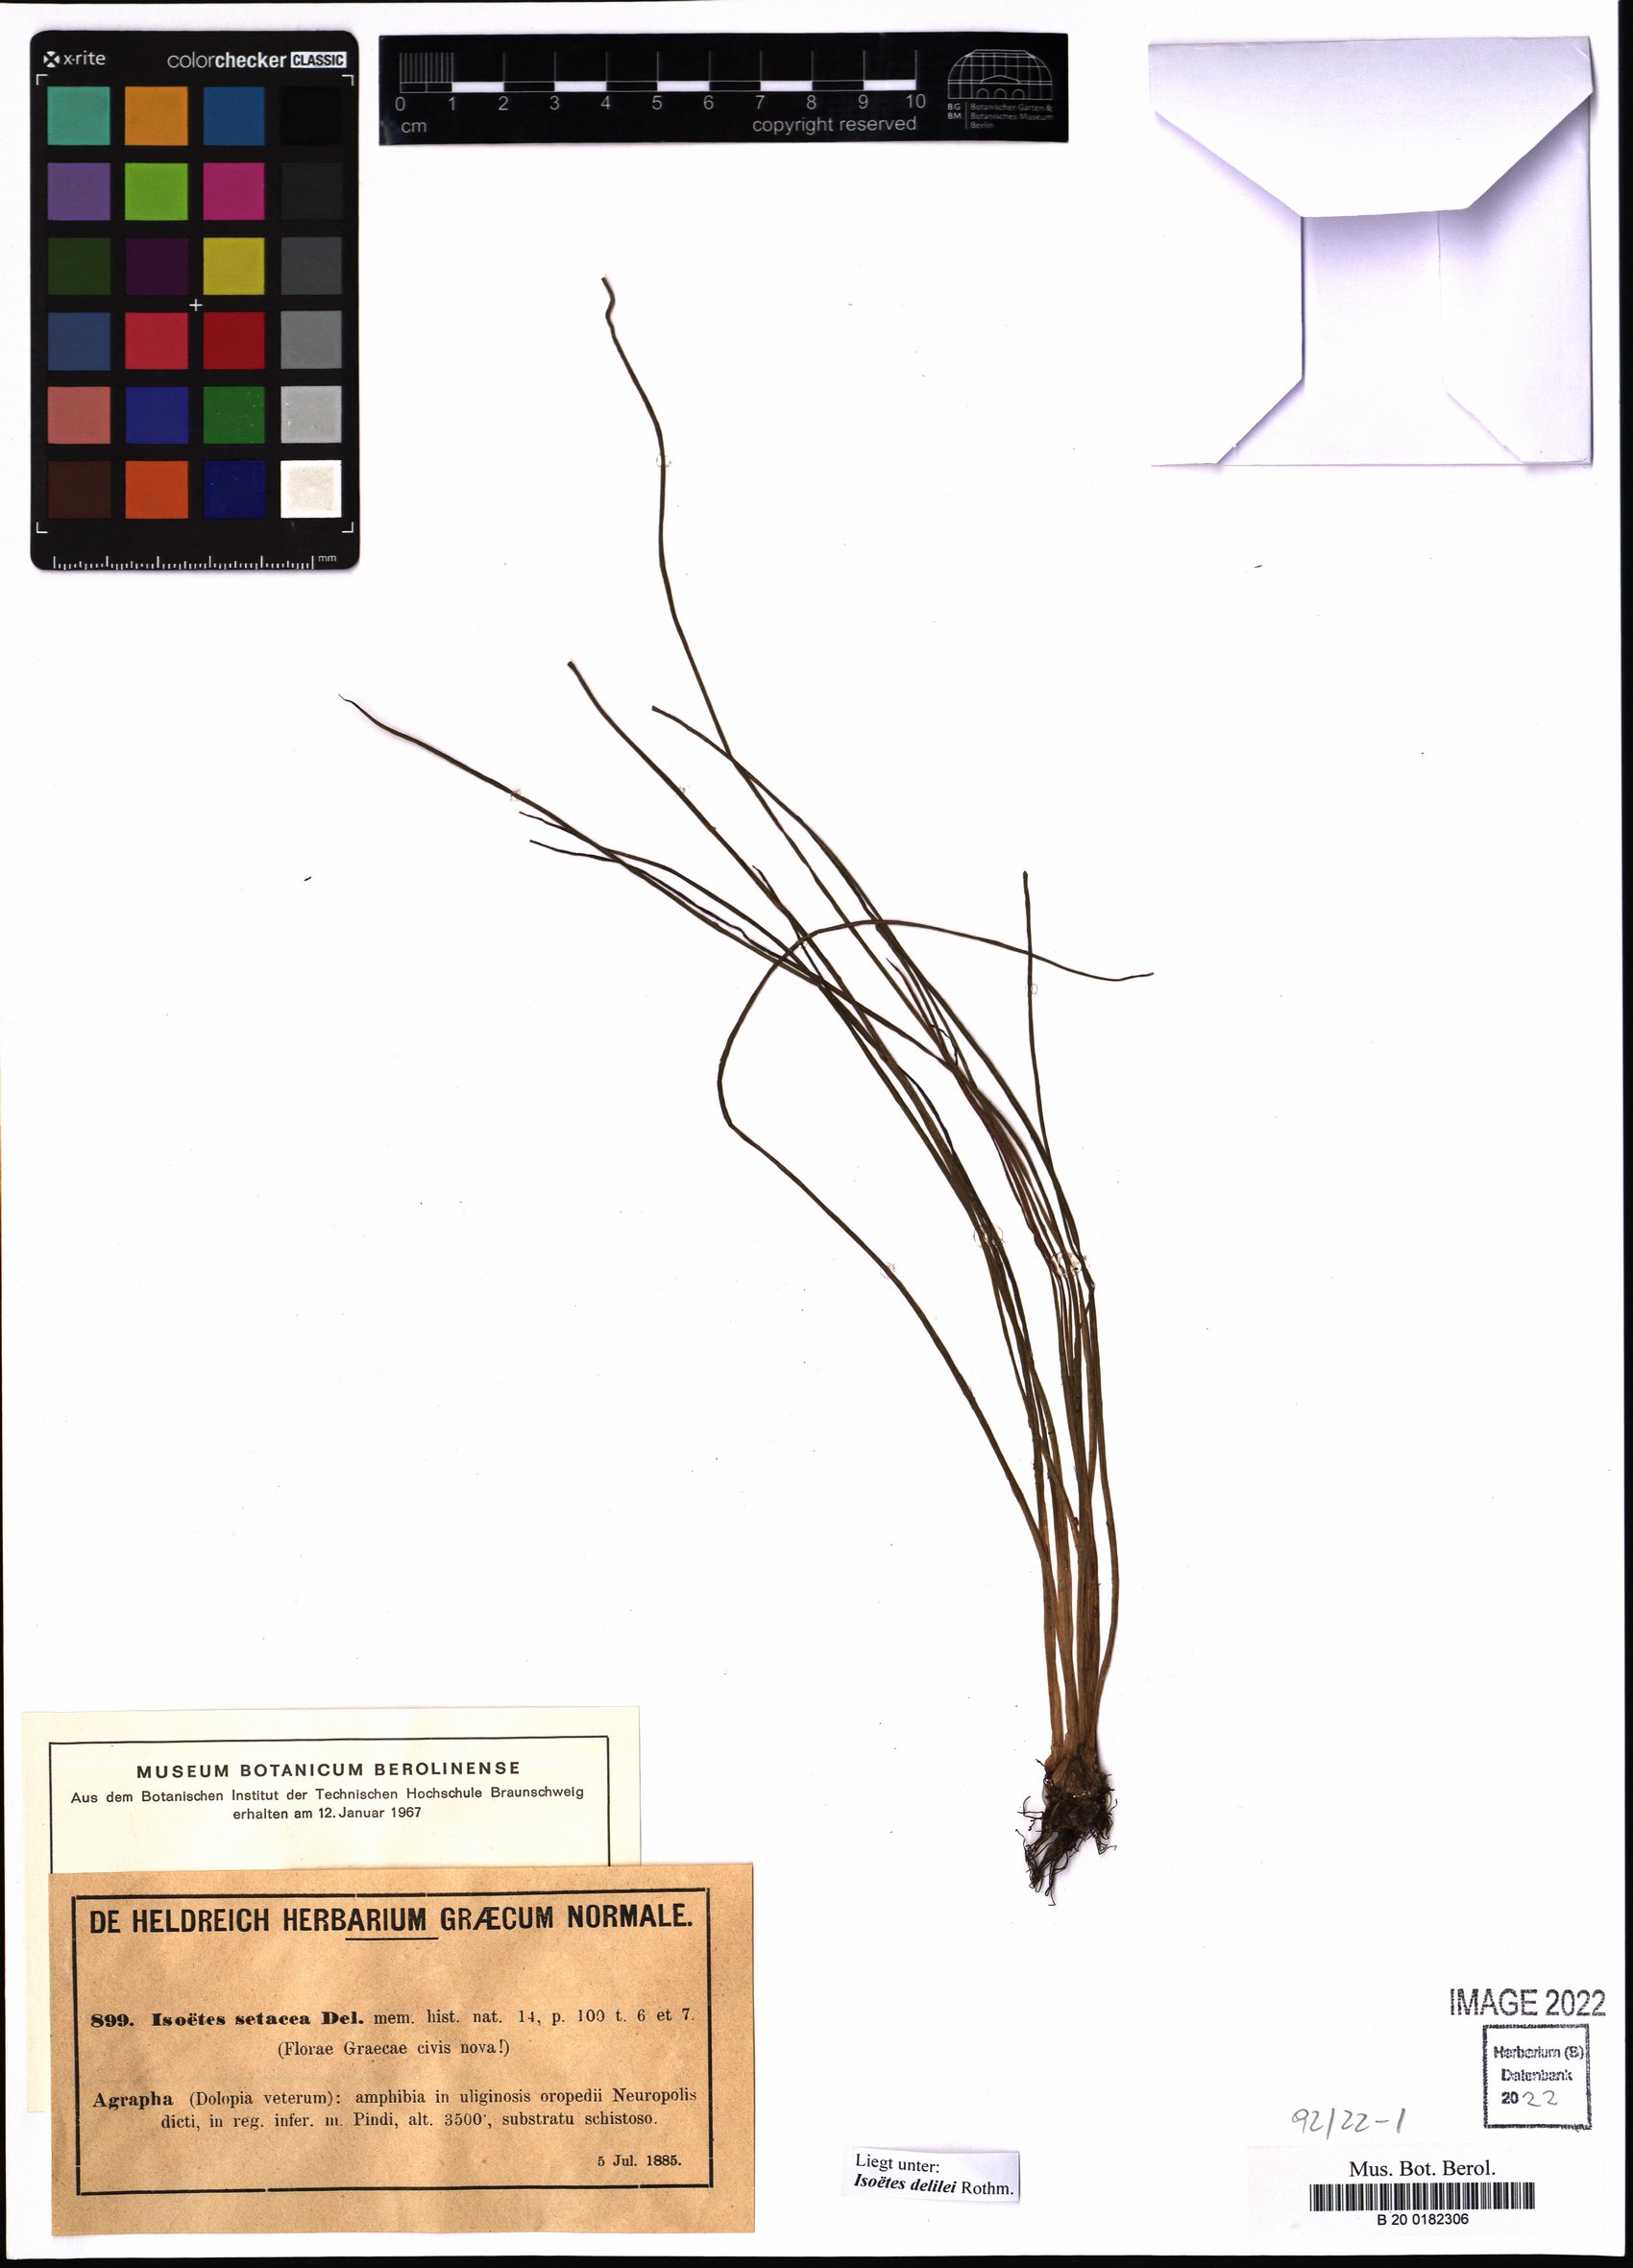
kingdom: Plantae
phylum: Tracheophyta
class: Lycopodiopsida
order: Isoetales
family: Isoetaceae
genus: Isoetes
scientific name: Isoetes delilei
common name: Iberian quillwort
